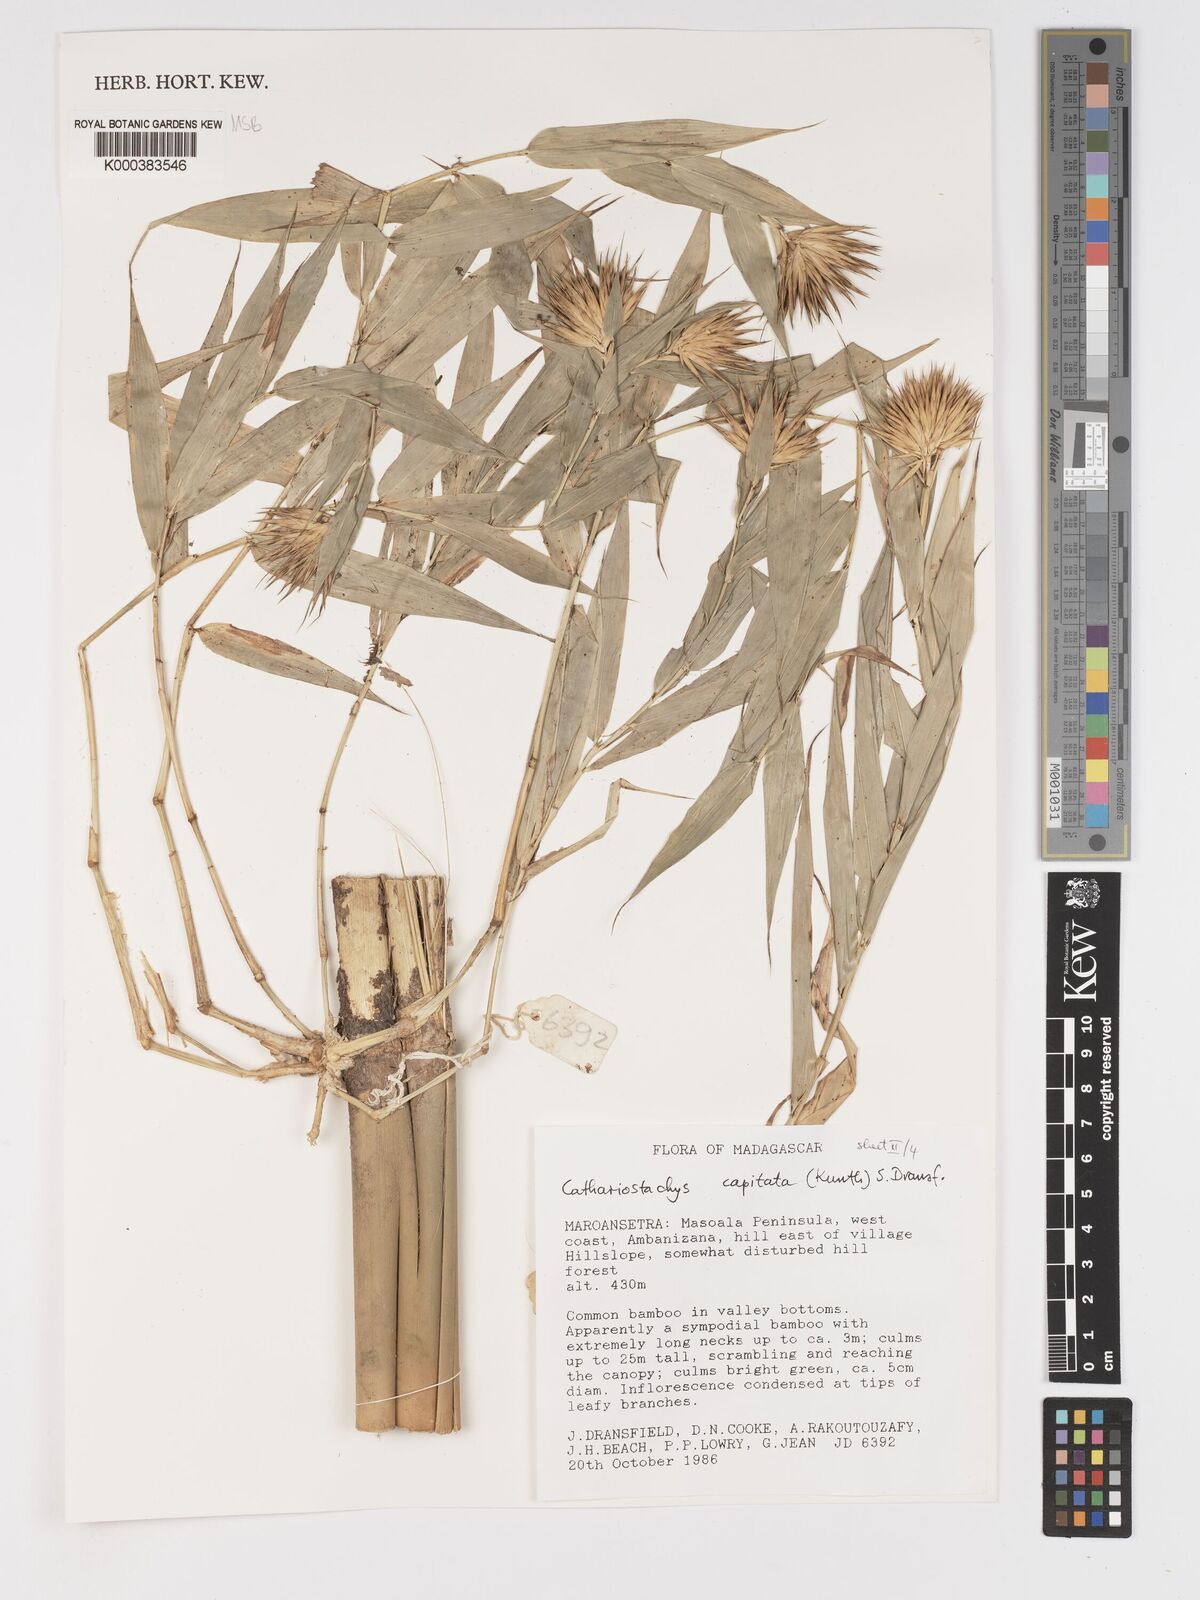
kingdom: Plantae
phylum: Tracheophyta
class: Liliopsida
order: Poales
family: Poaceae
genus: Cathariostachys
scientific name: Cathariostachys capitata
